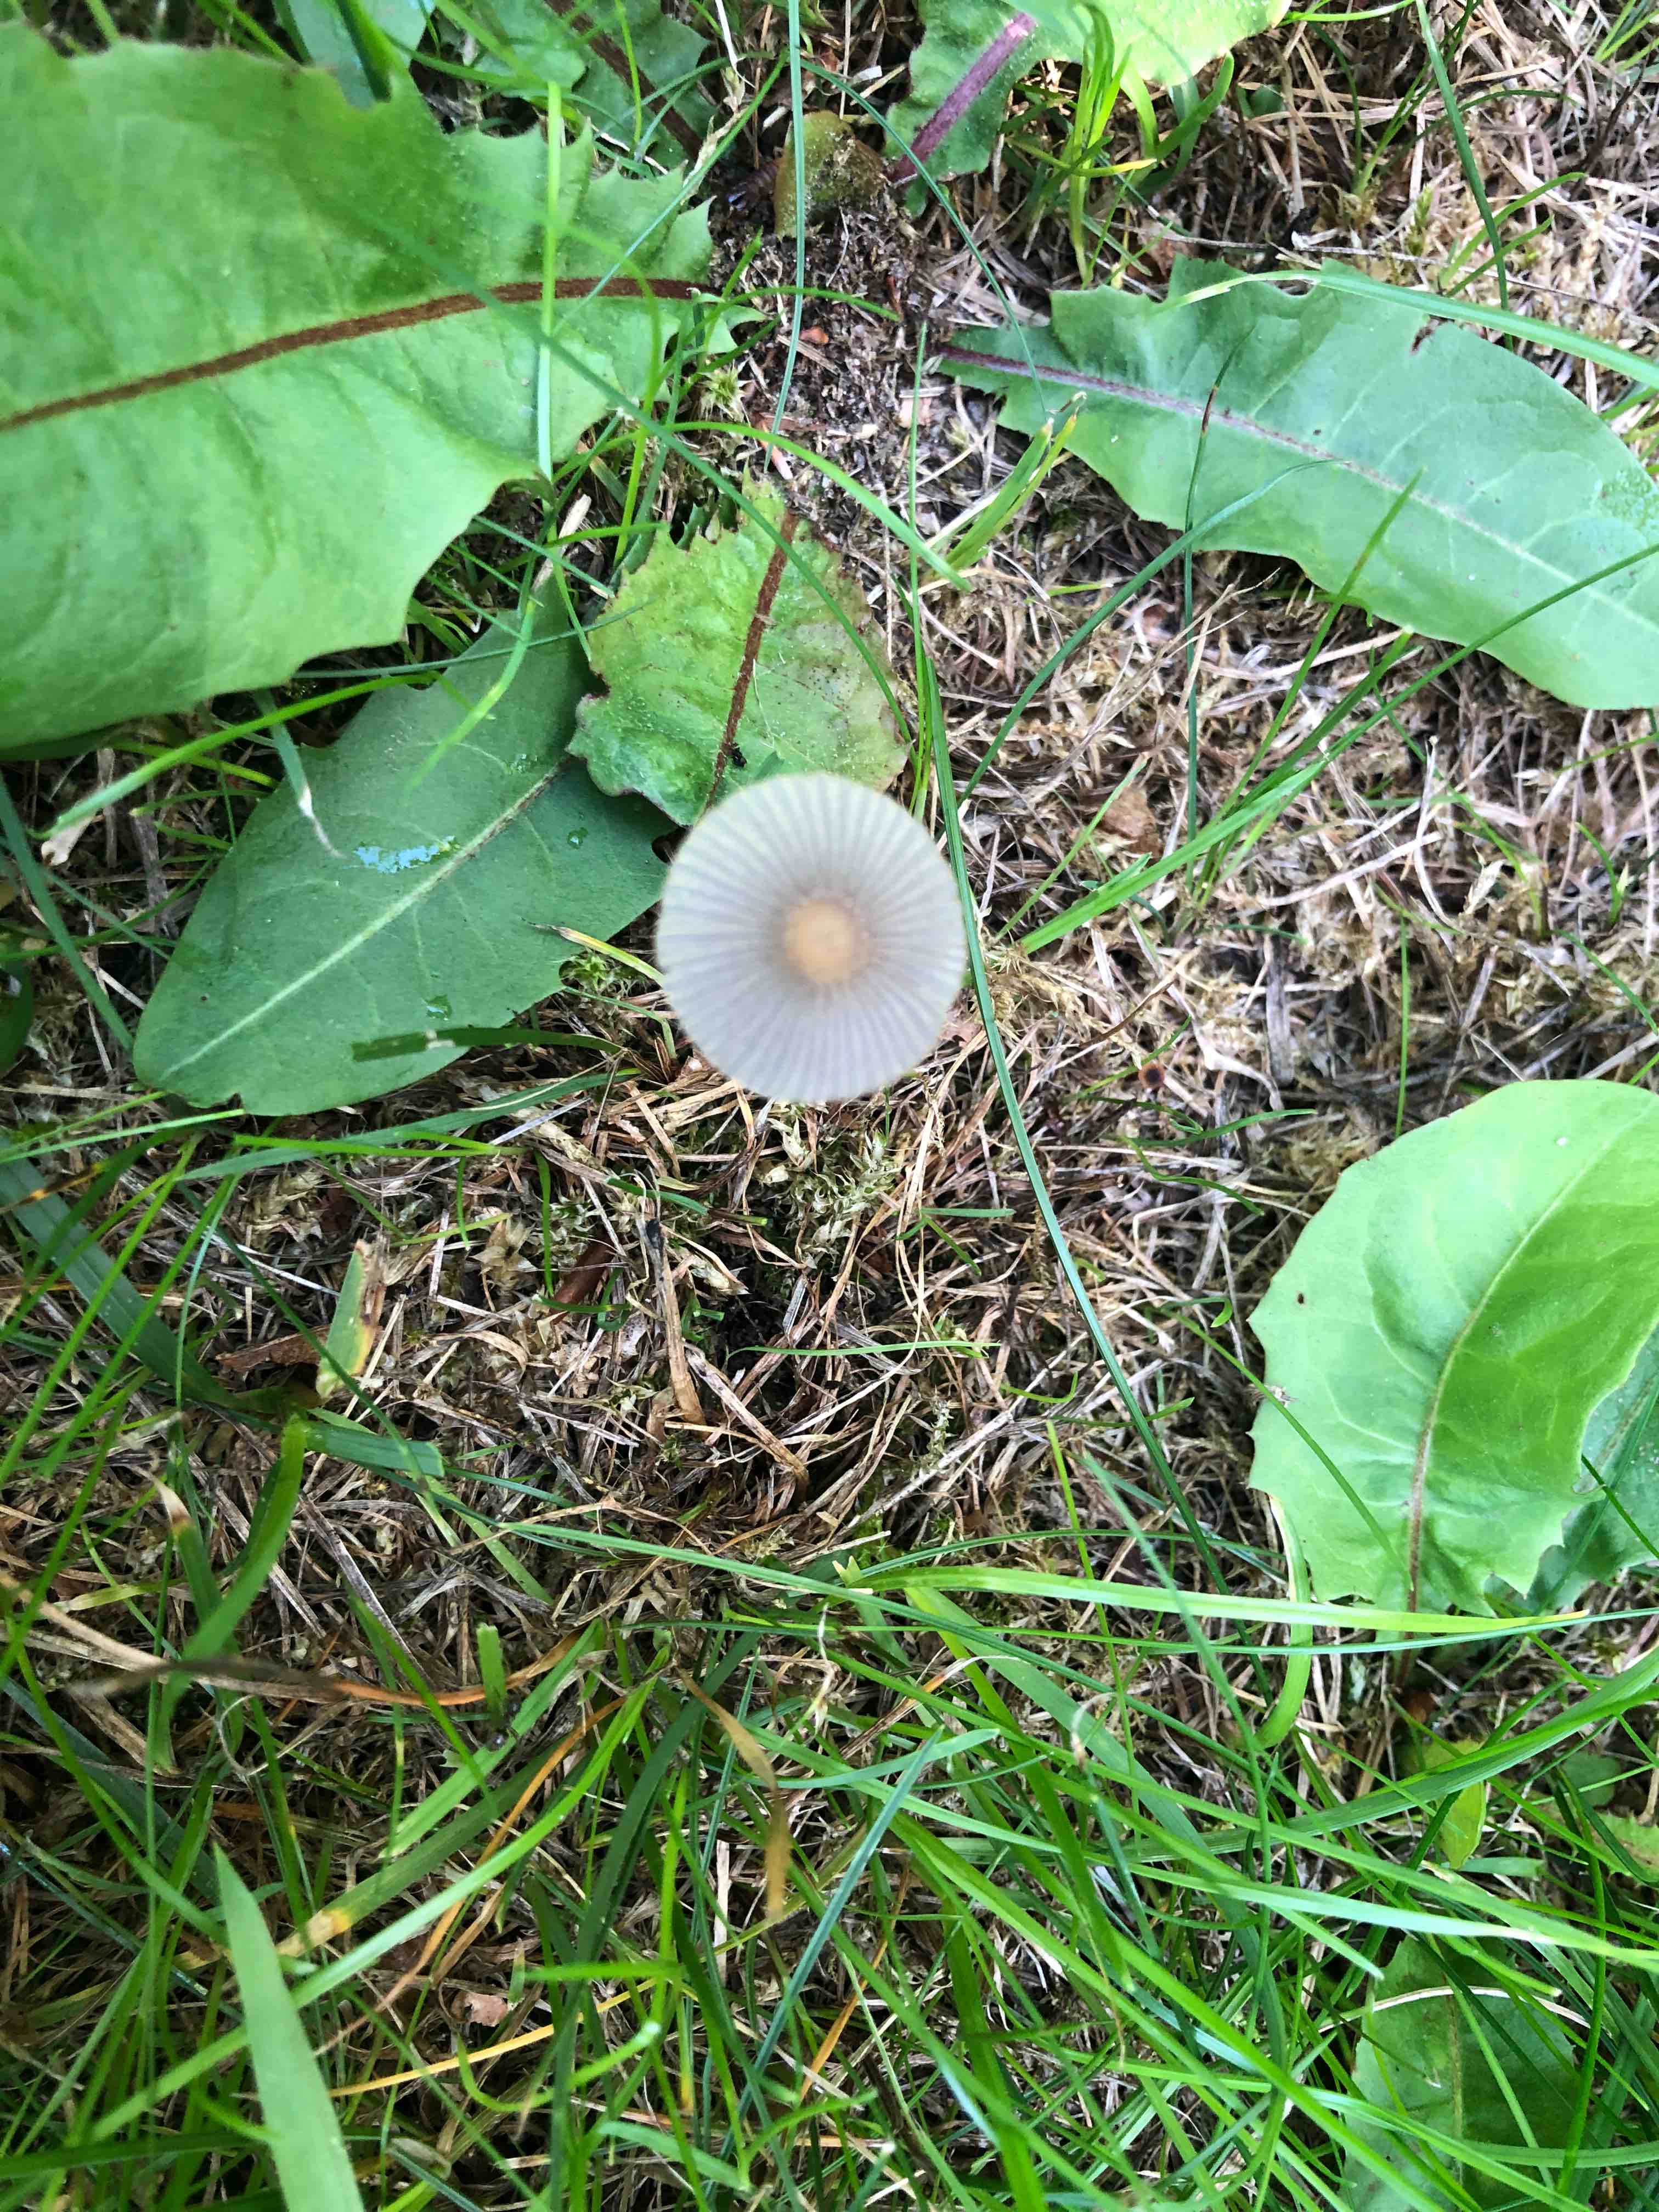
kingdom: Fungi
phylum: Basidiomycota
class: Agaricomycetes
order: Agaricales
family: Psathyrellaceae
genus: Parasola
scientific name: Parasola kuehneri
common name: skygge-hjulhat
